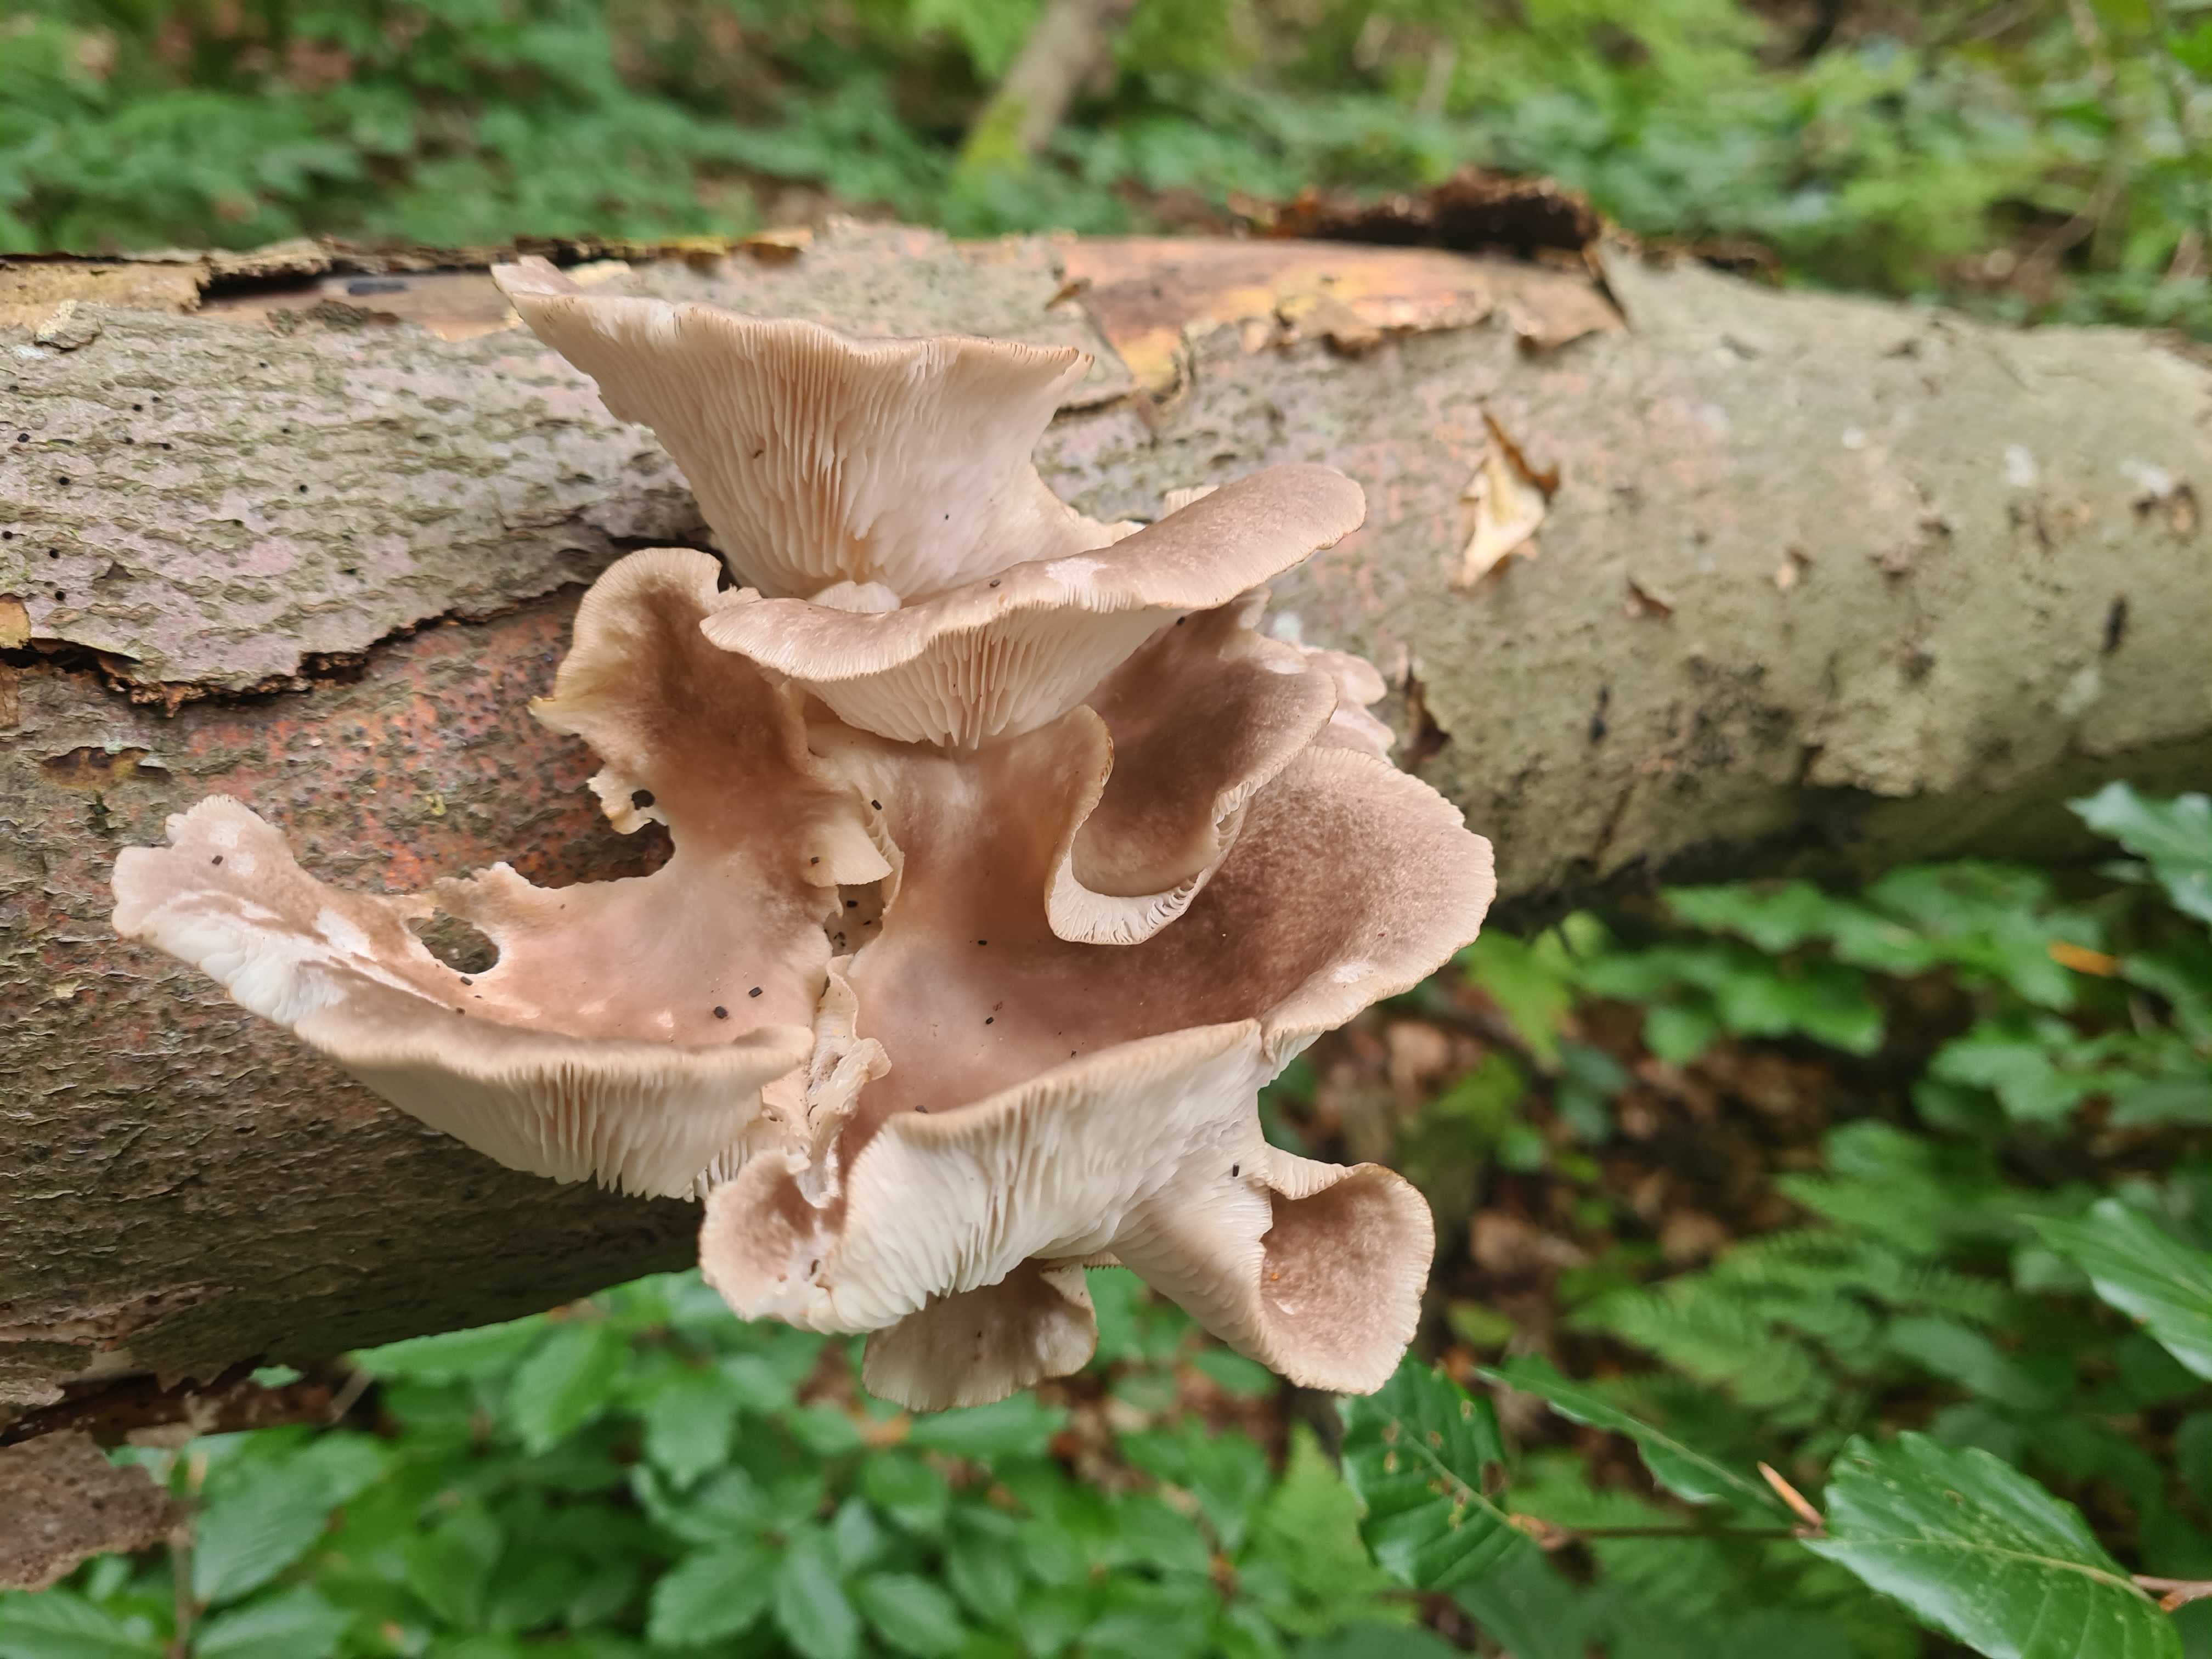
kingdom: Fungi
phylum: Basidiomycota
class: Agaricomycetes
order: Agaricales
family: Pleurotaceae
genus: Pleurotus
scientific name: Pleurotus pulmonarius
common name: sommer-østershat
